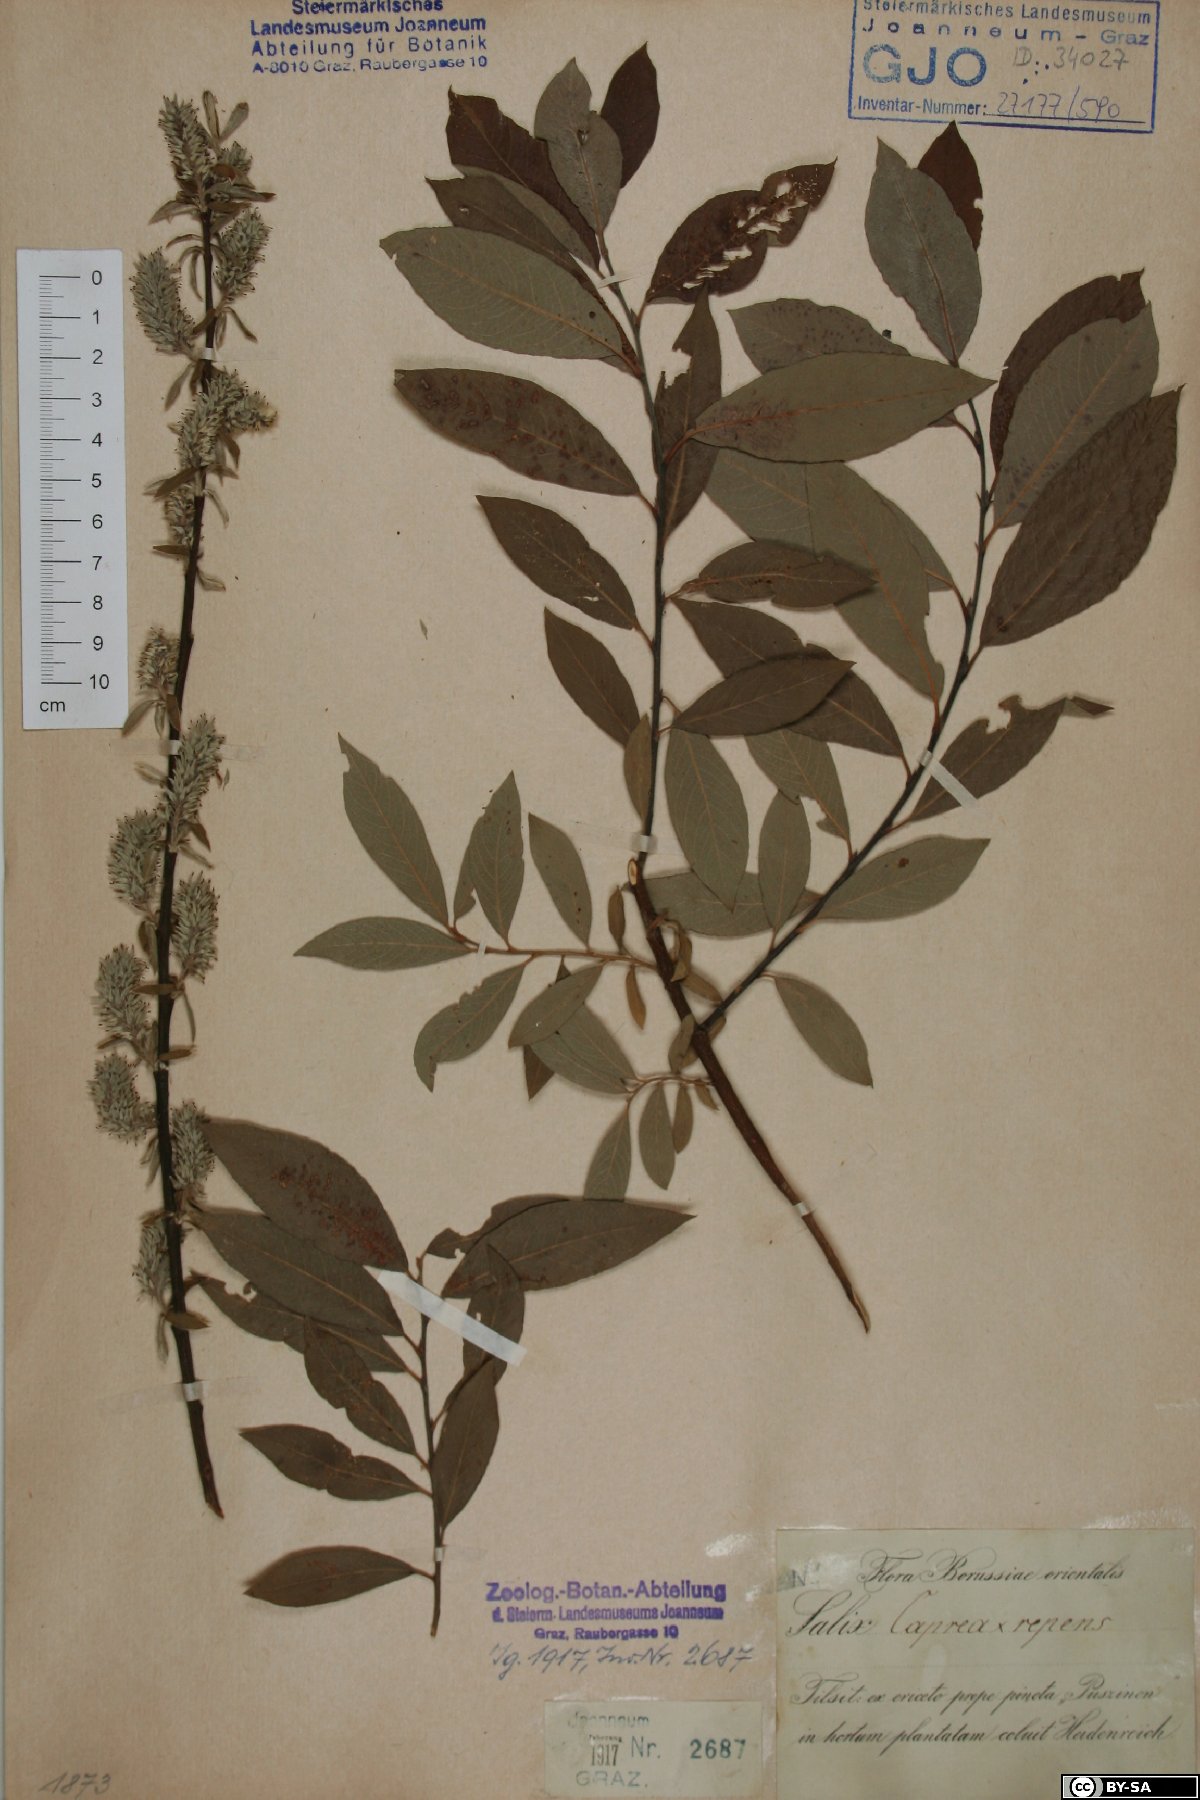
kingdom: Plantae
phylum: Tracheophyta
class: Magnoliopsida
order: Malpighiales
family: Salicaceae
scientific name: Salicaceae
